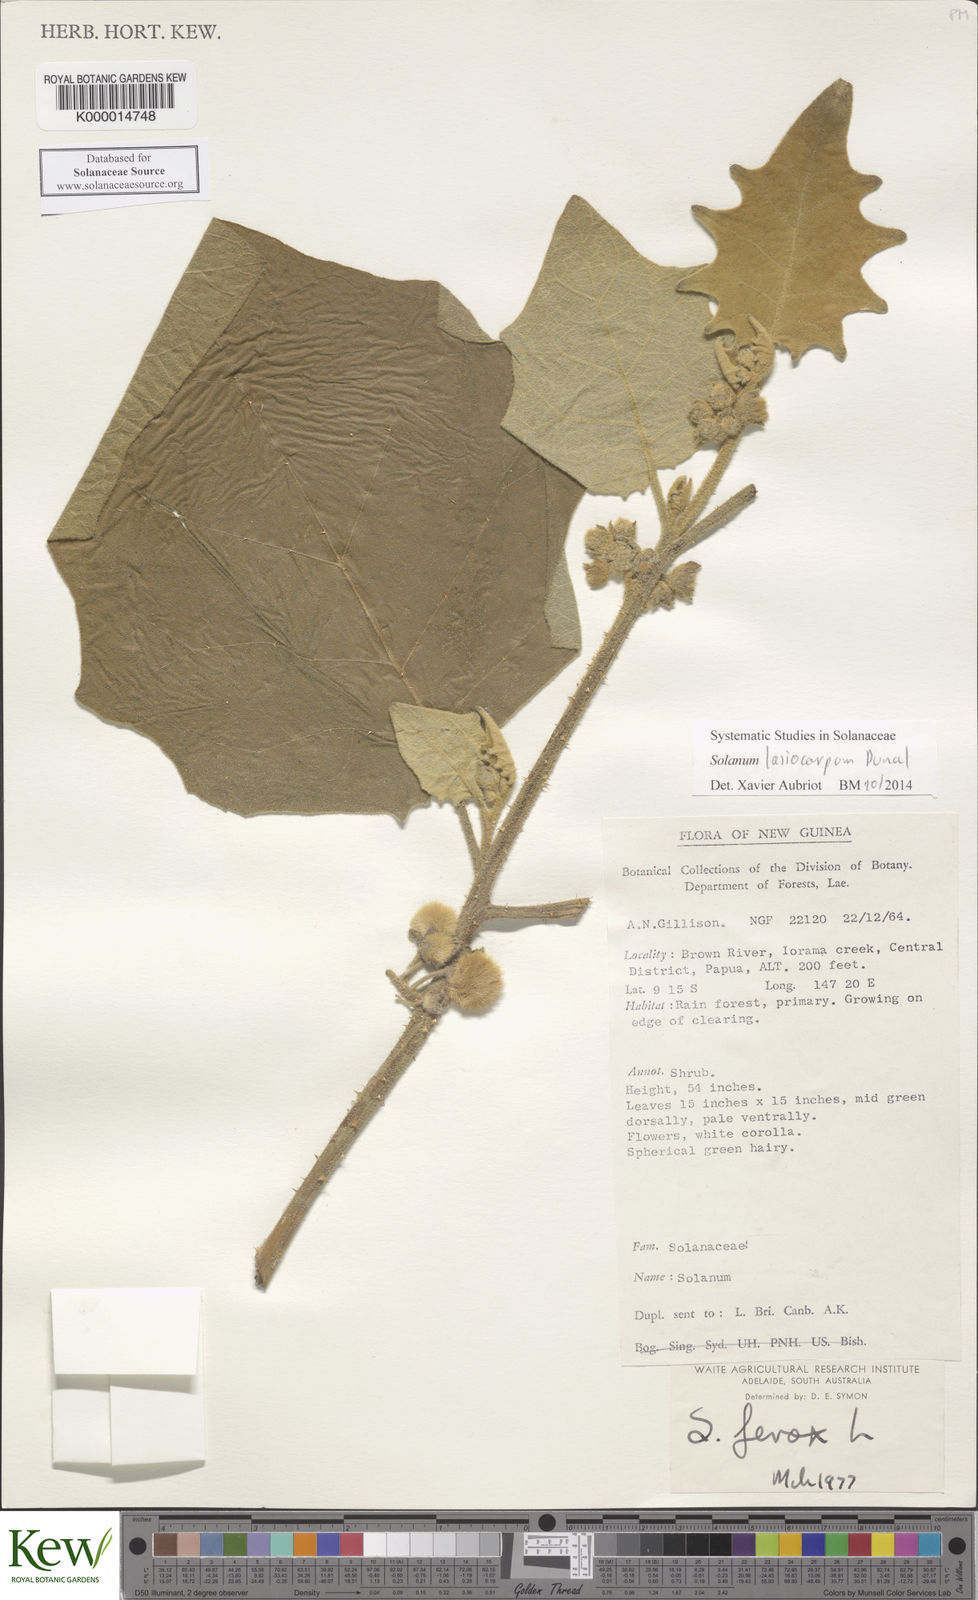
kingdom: Plantae
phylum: Tracheophyta
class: Magnoliopsida
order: Solanales
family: Solanaceae
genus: Solanum
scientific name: Solanum lasiocarpum
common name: Indian nightshade
